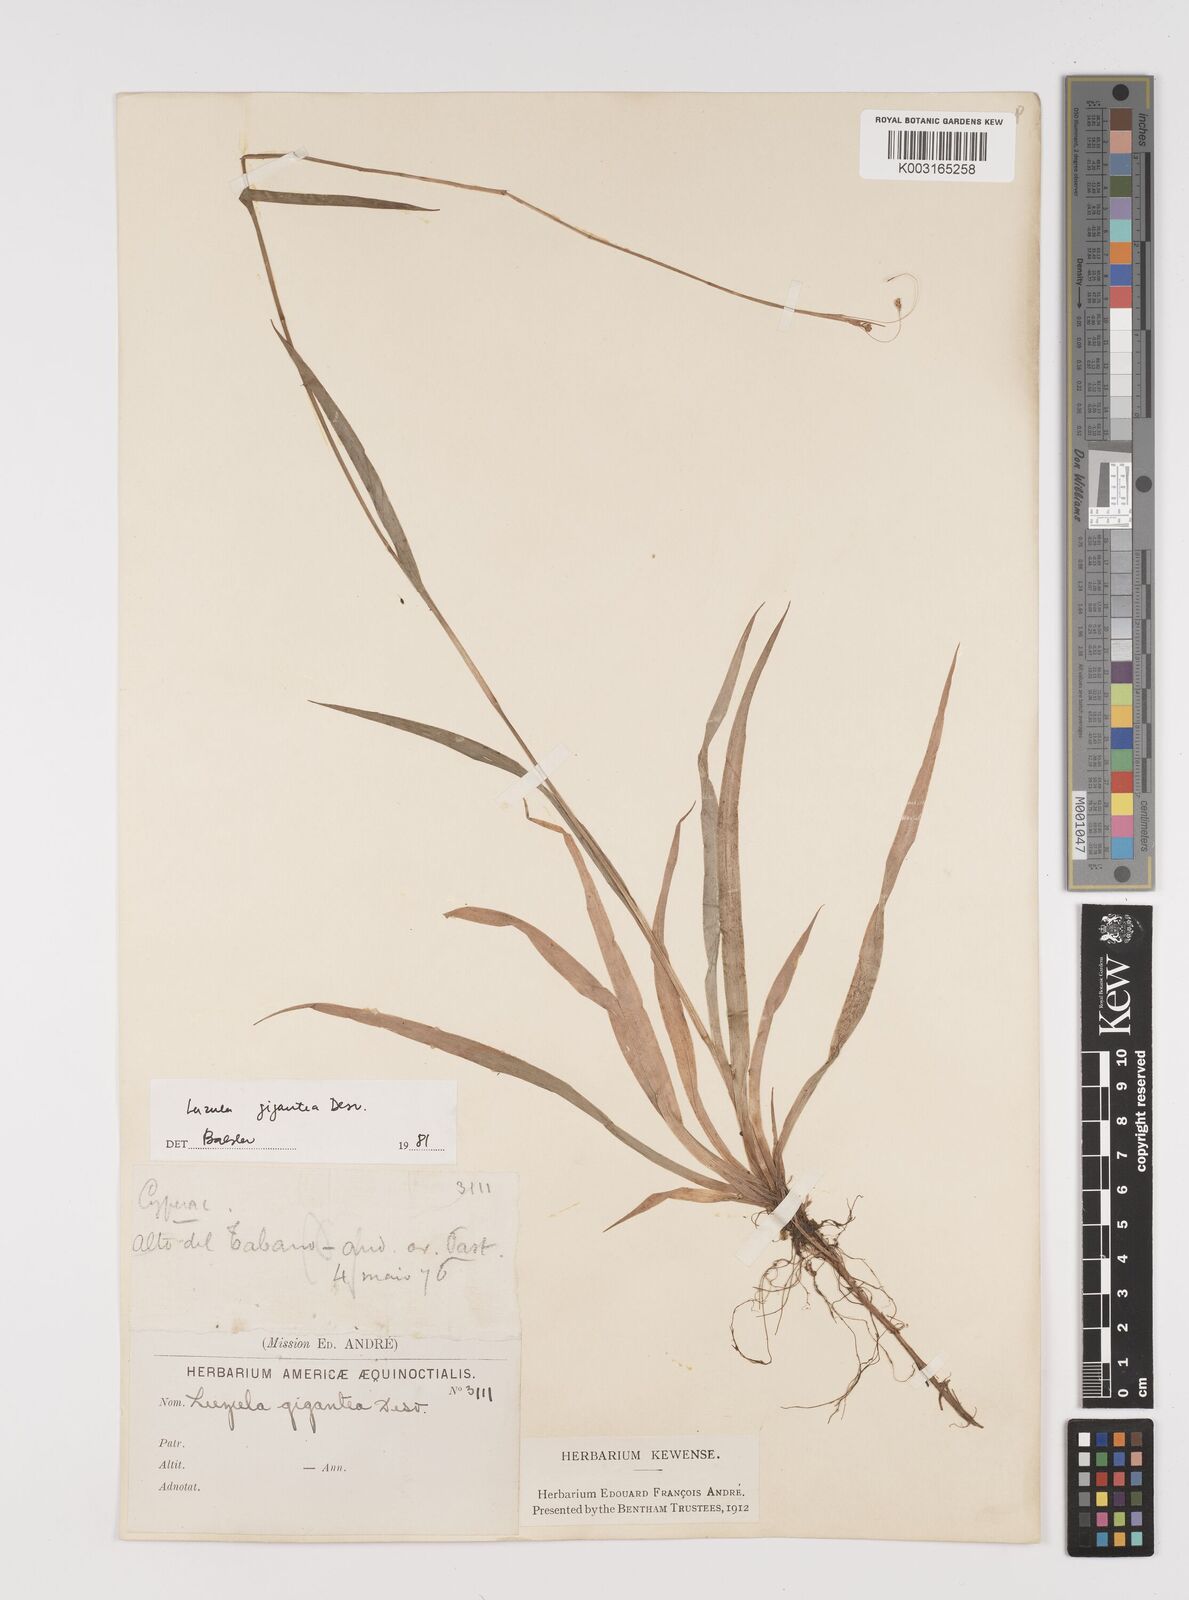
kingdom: Plantae
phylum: Tracheophyta
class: Liliopsida
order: Poales
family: Juncaceae
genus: Luzula
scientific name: Luzula gigantea
